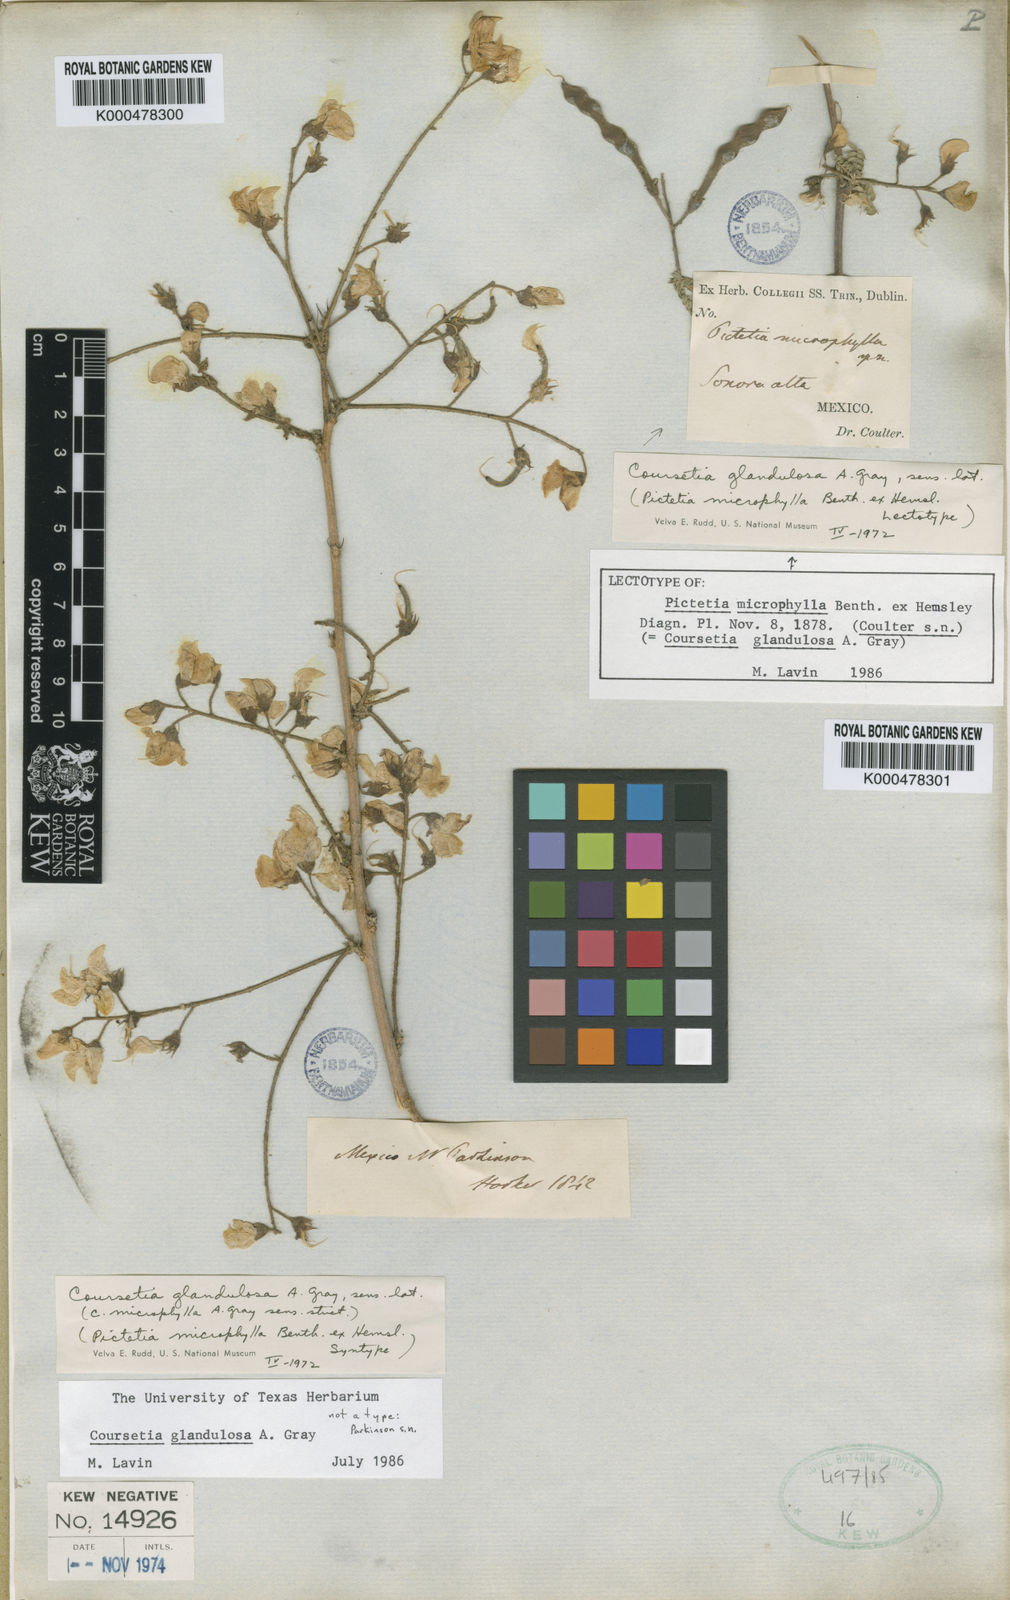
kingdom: Plantae
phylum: Tracheophyta
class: Magnoliopsida
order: Fabales
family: Fabaceae
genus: Coursetia
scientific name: Coursetia glandulosa
